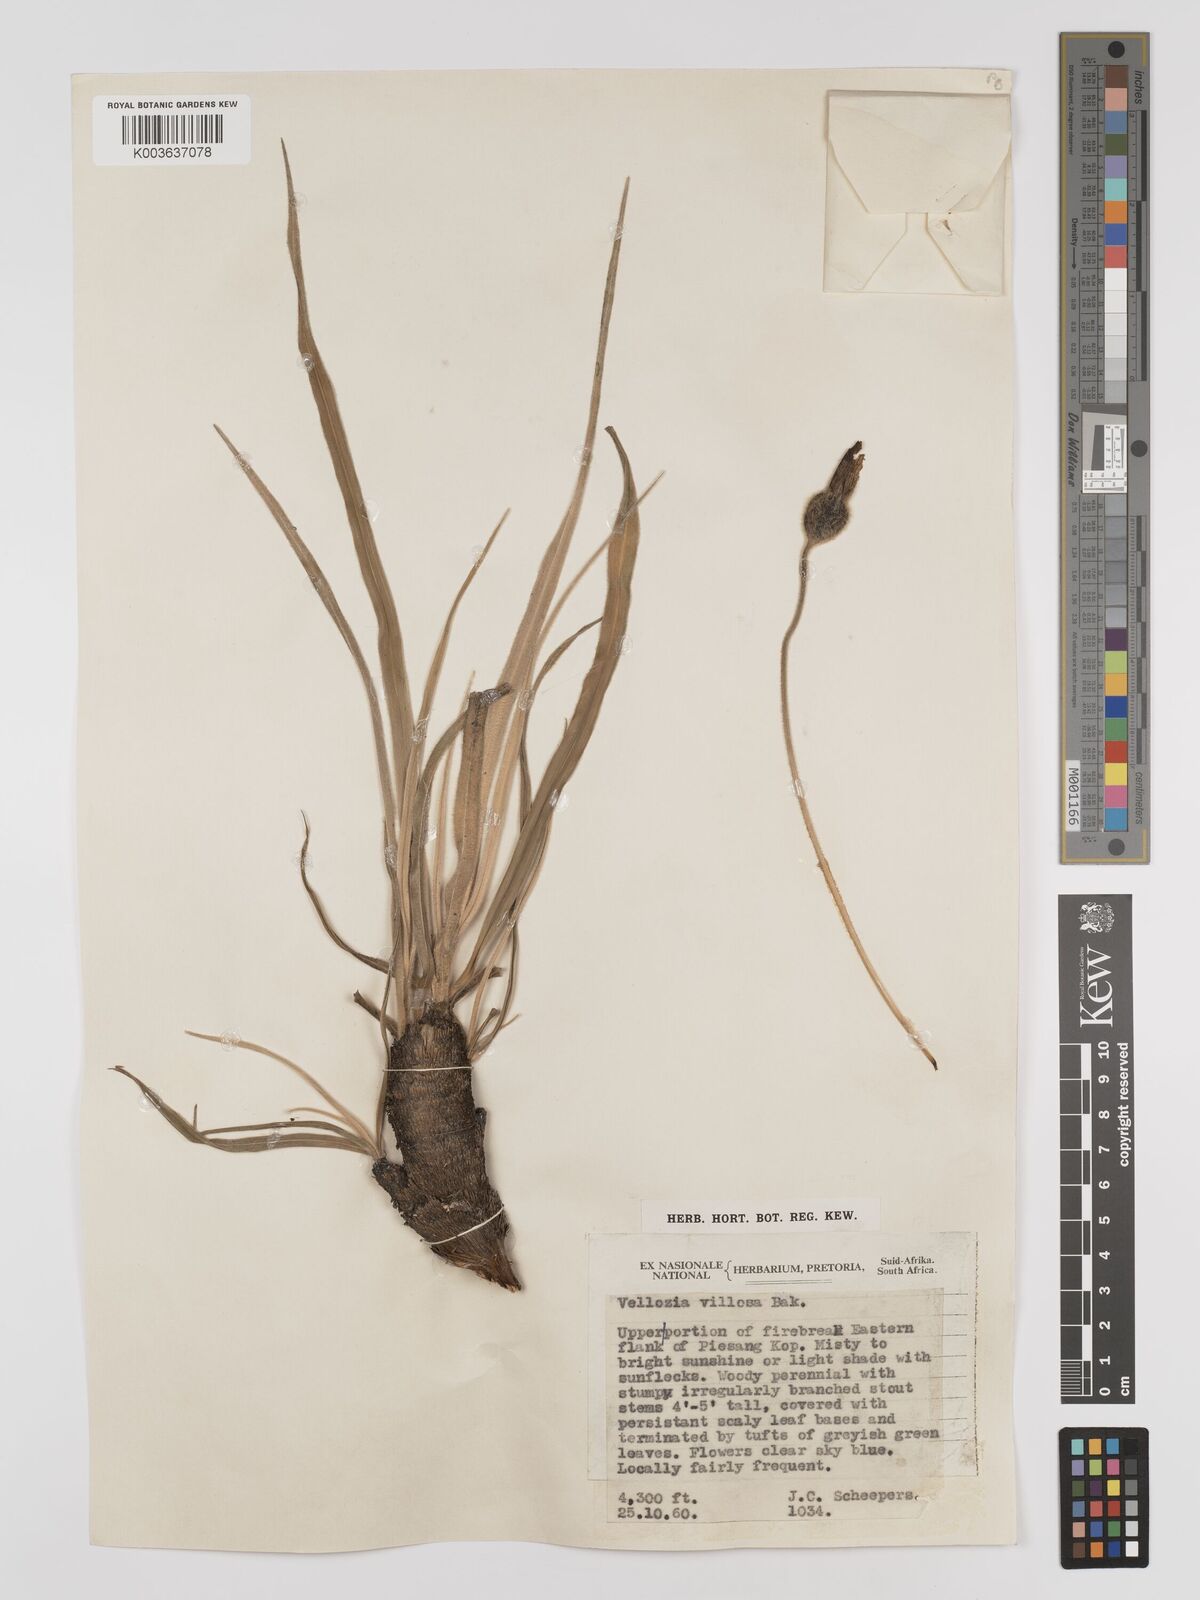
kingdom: Plantae
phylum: Tracheophyta
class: Liliopsida
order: Pandanales
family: Velloziaceae
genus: Xerophyta
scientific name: Xerophyta villosa
